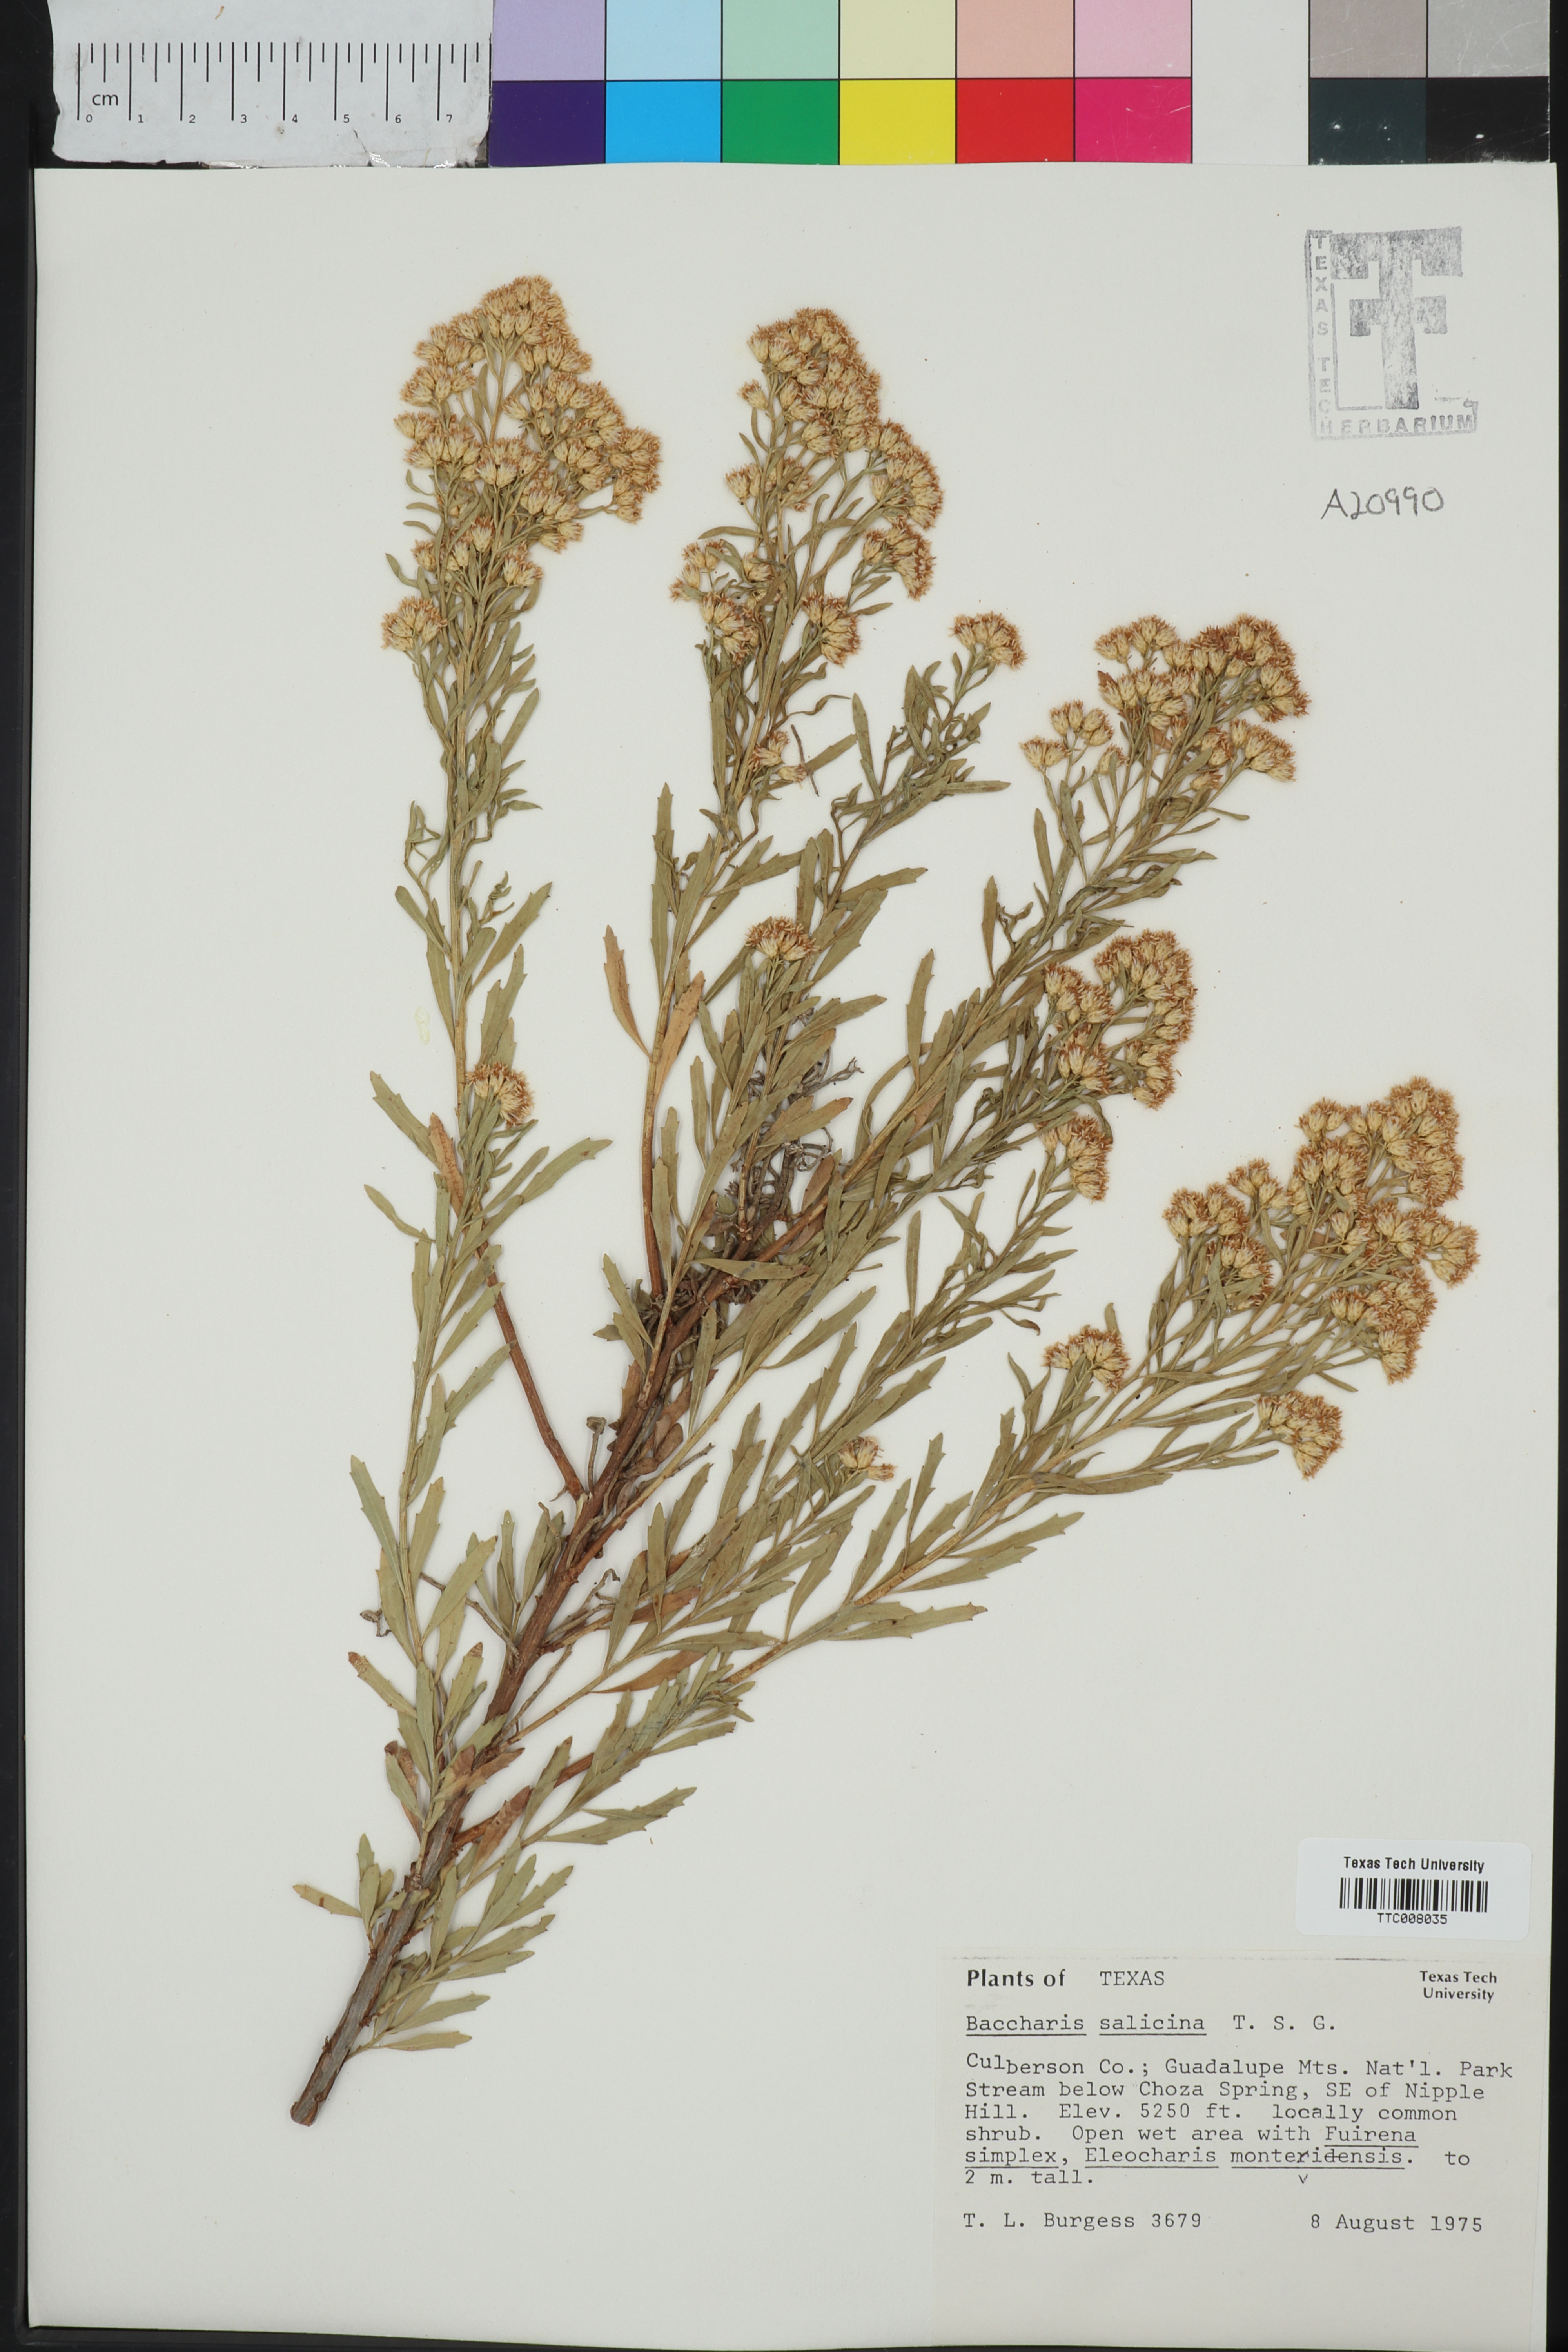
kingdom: Plantae
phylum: Tracheophyta
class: Magnoliopsida
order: Asterales
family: Asteraceae
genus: Baccharis
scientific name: Baccharis salicina
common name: Willow baccharis
